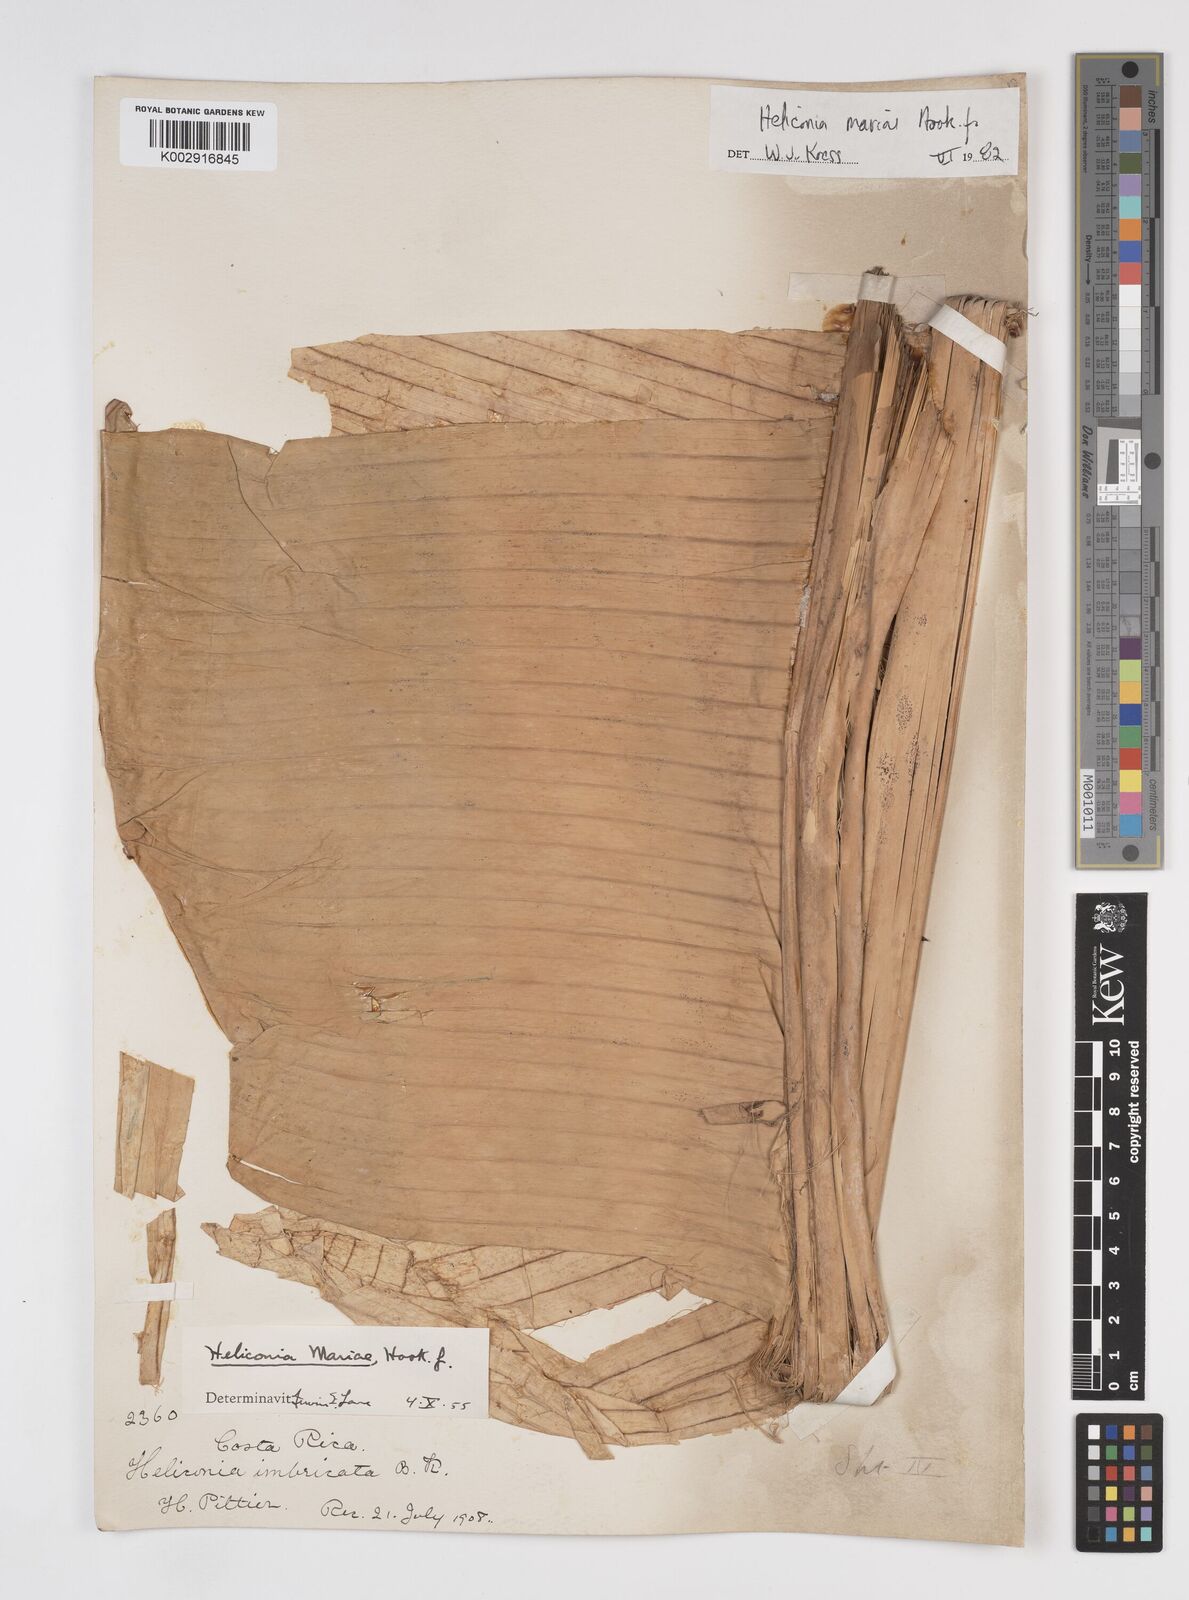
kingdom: Plantae
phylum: Tracheophyta
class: Liliopsida
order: Zingiberales
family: Heliconiaceae
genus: Heliconia
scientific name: Heliconia mariae
